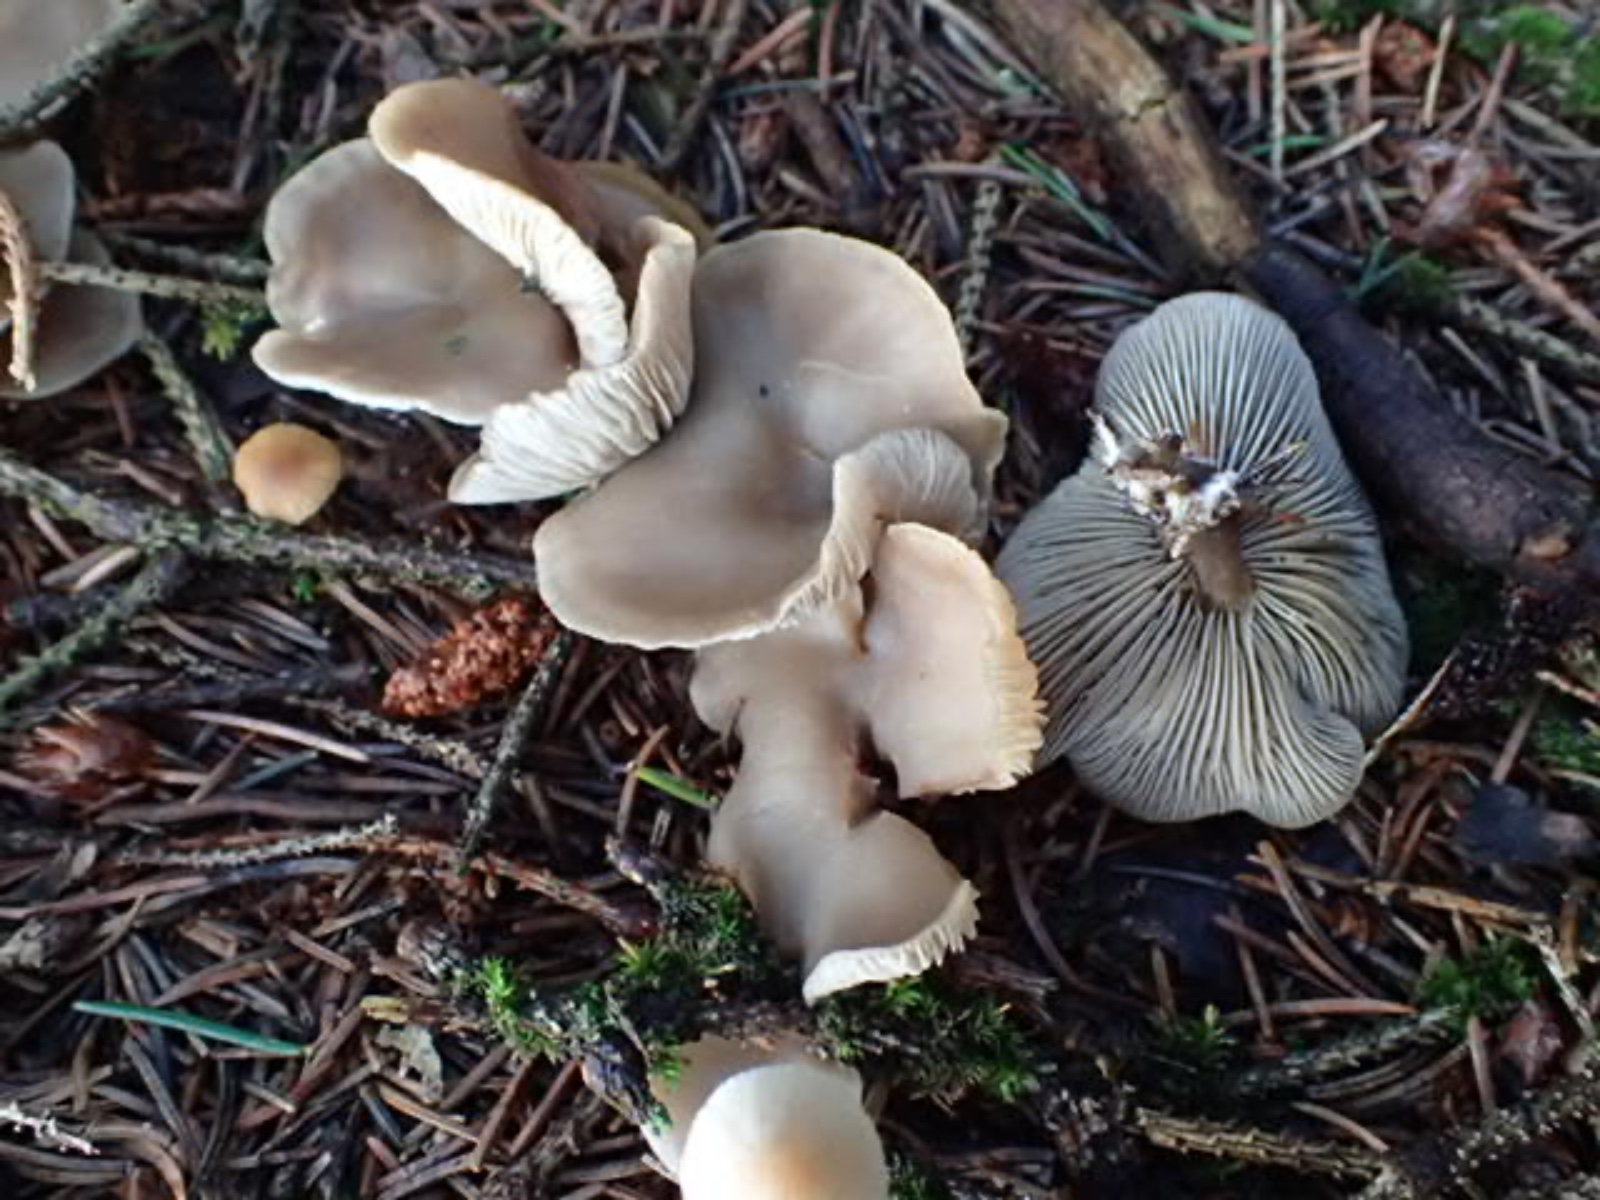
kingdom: Fungi
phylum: Basidiomycota
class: Agaricomycetes
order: Agaricales
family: Tricholomataceae
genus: Clitocybe
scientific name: Clitocybe
